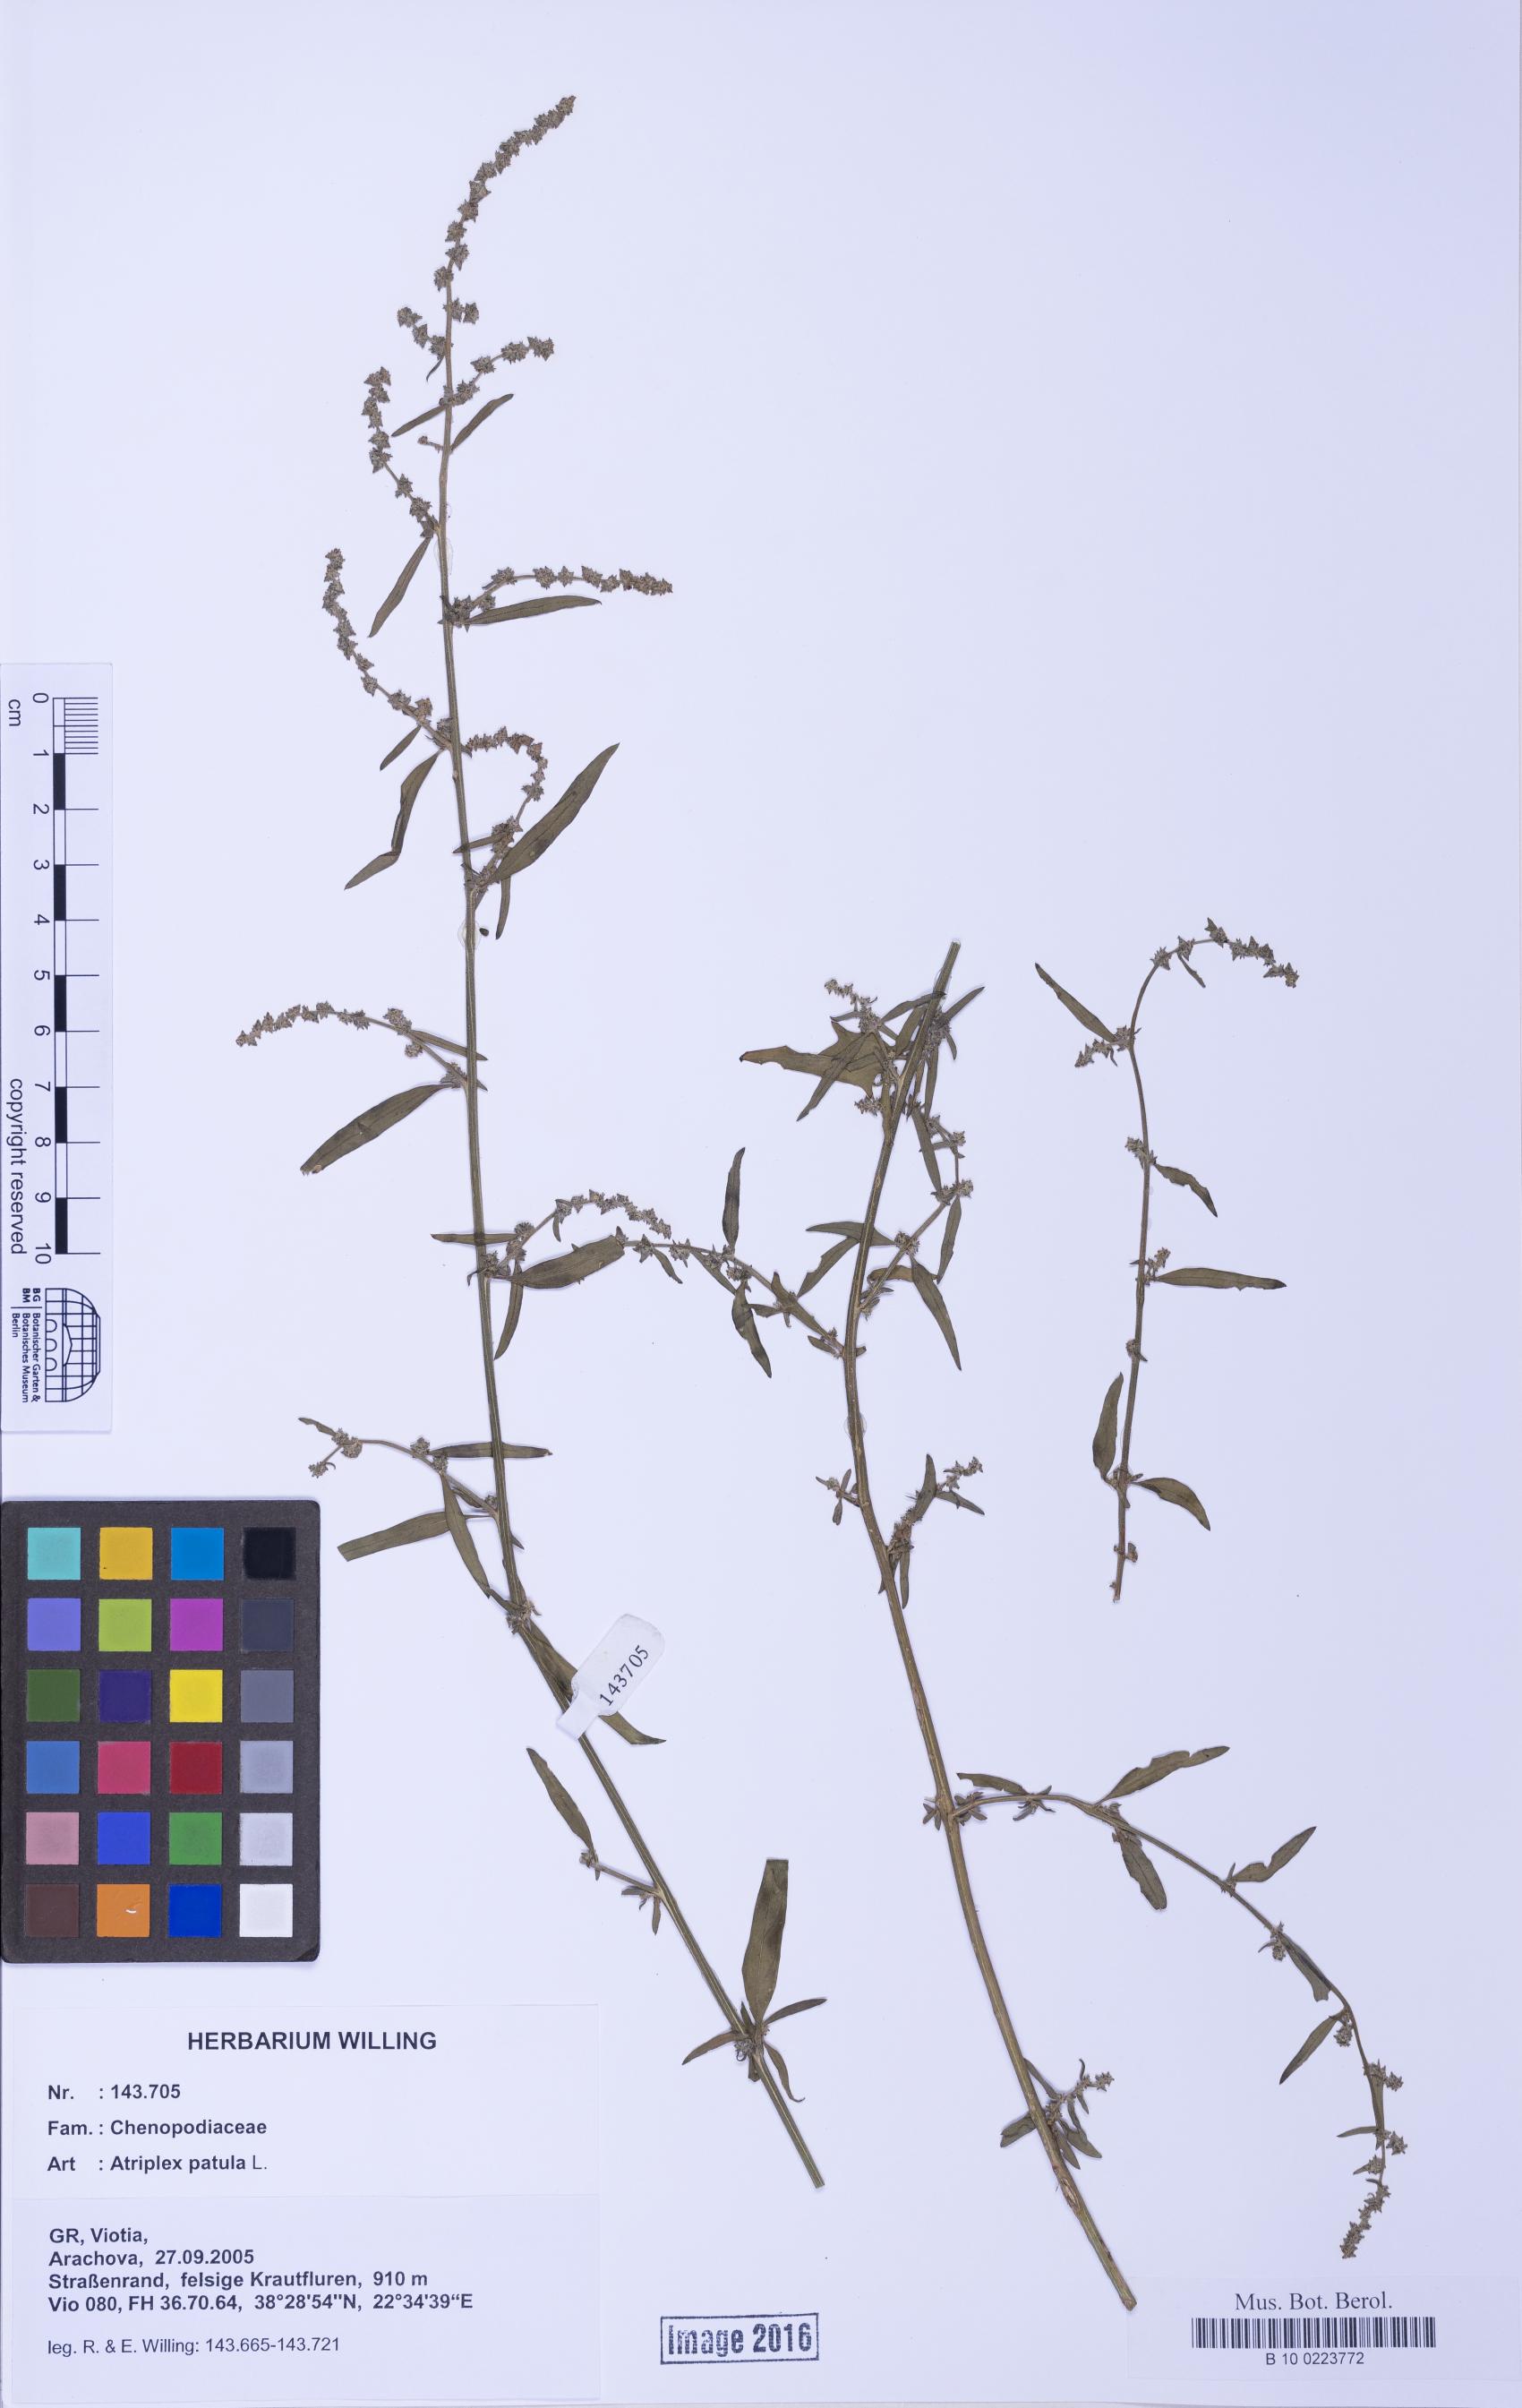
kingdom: Plantae
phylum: Tracheophyta
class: Magnoliopsida
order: Caryophyllales
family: Amaranthaceae
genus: Atriplex
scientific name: Atriplex patula
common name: Common orache
